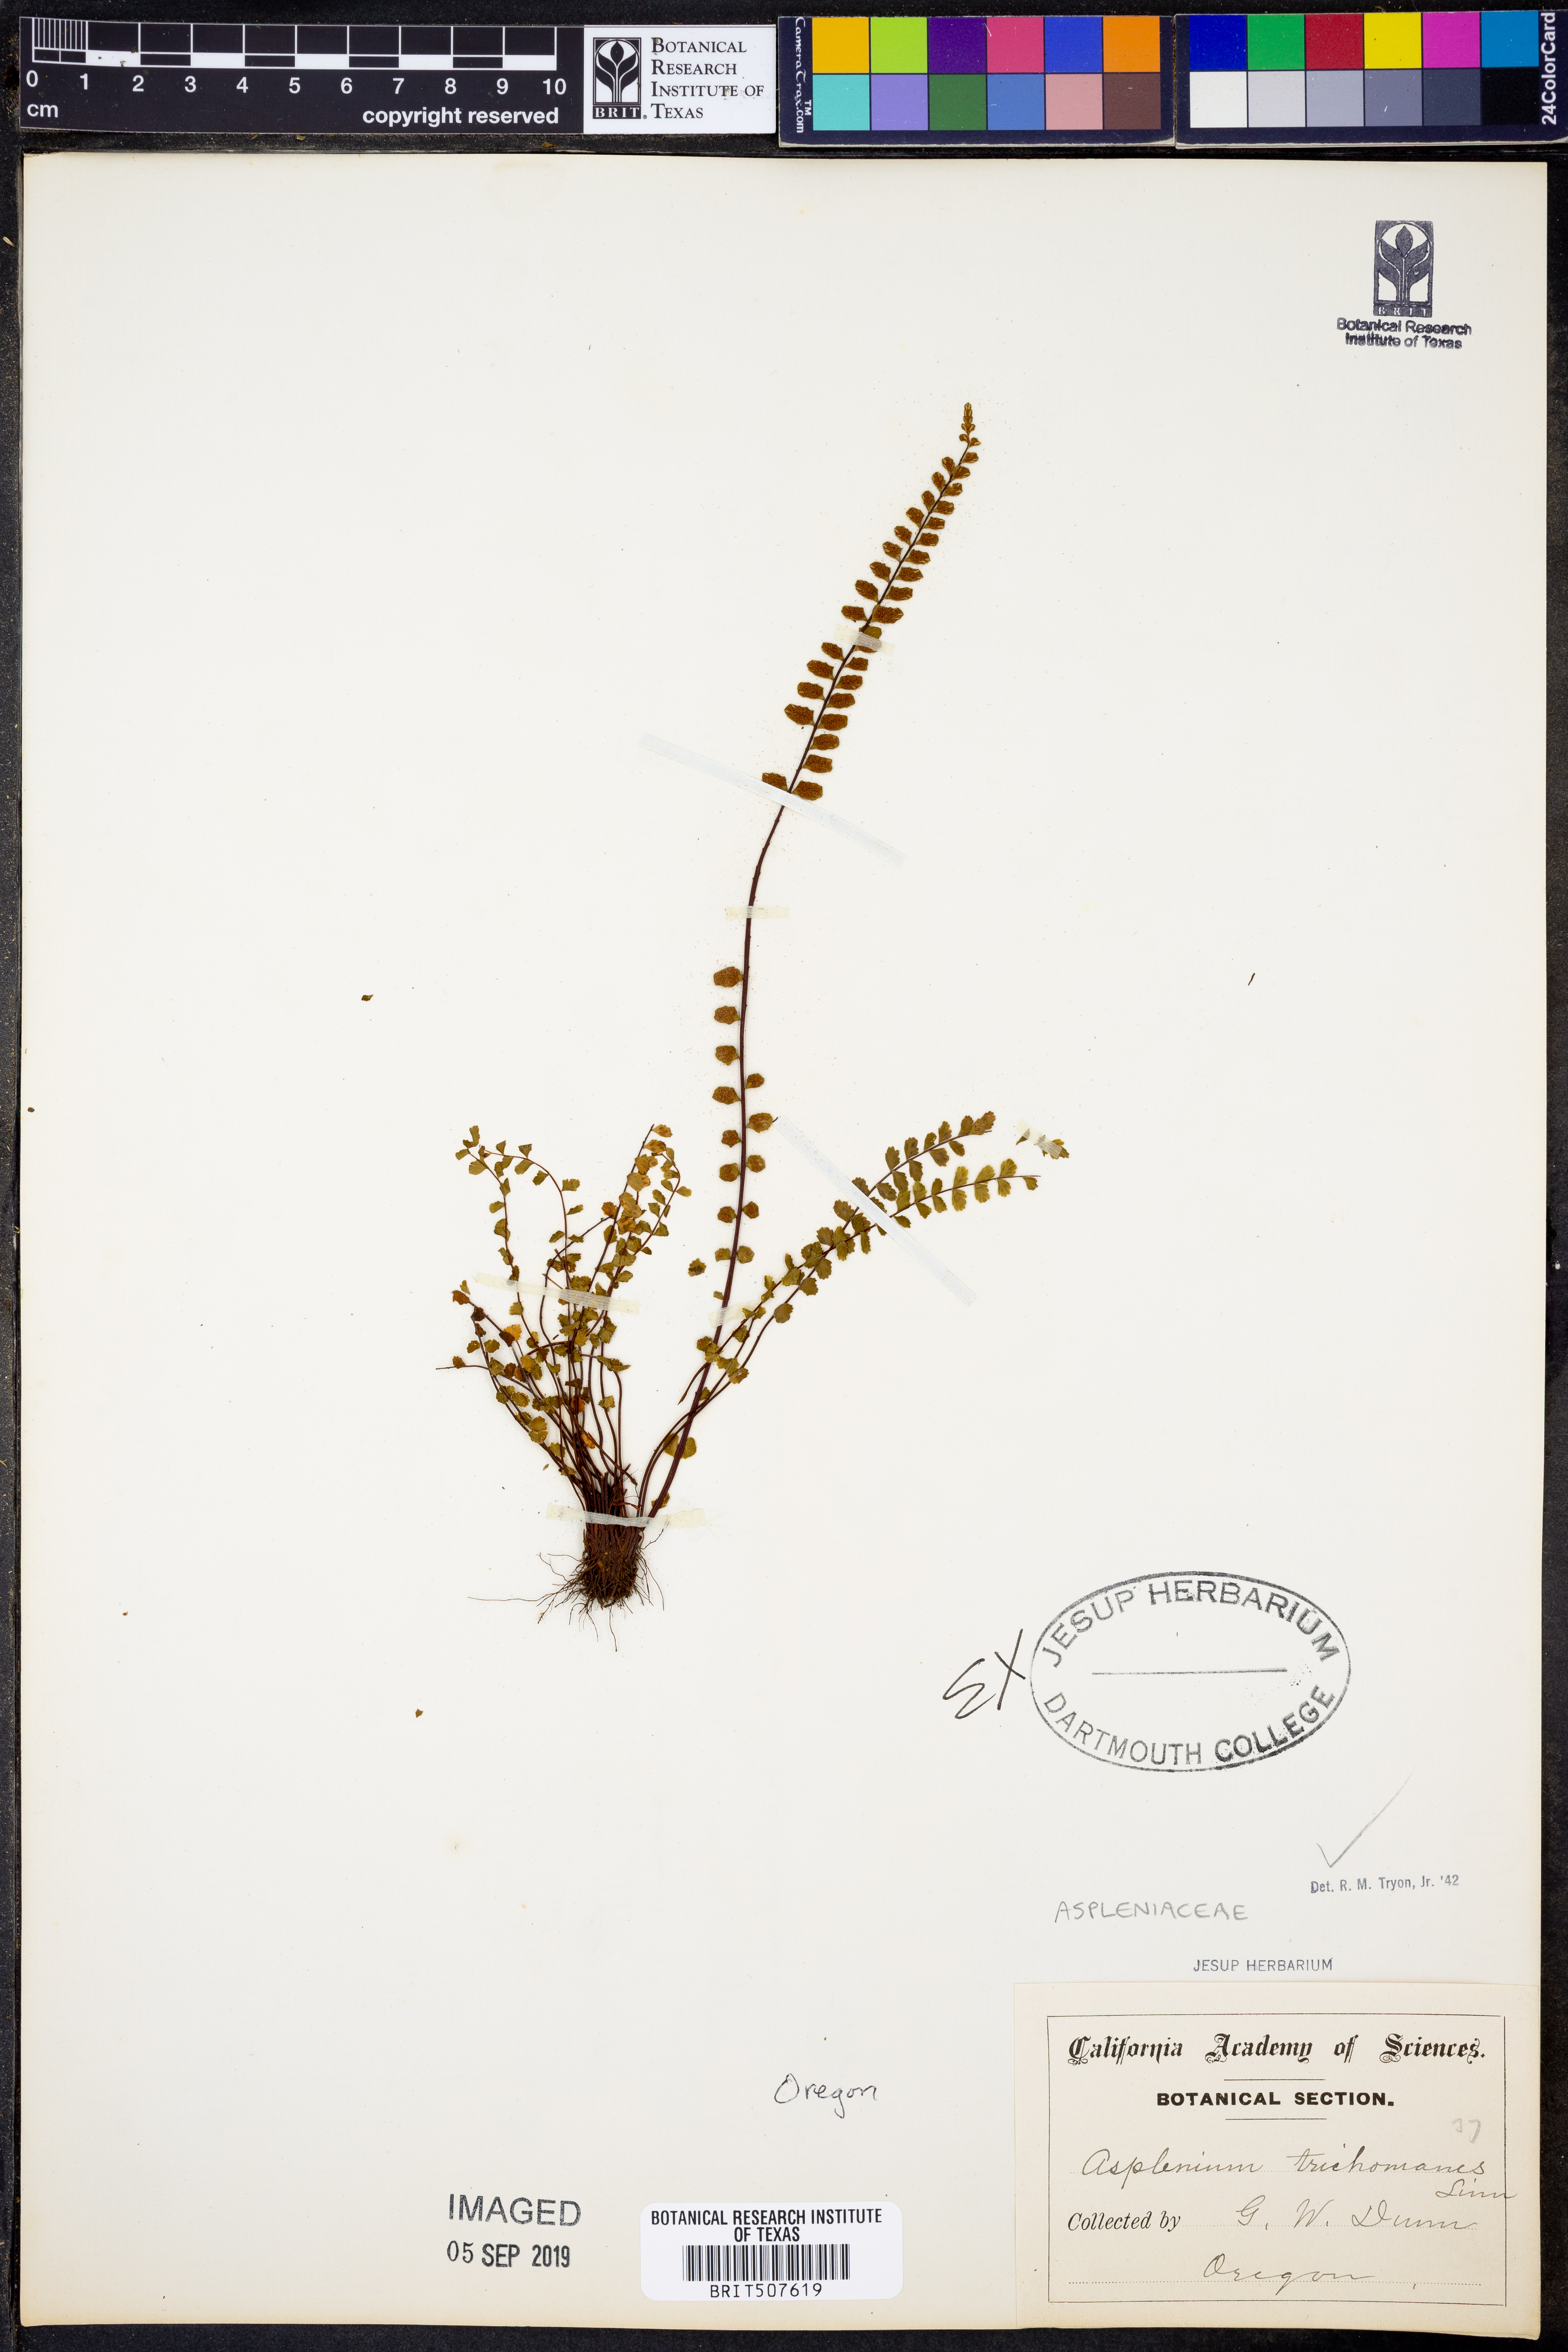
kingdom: Plantae
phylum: Tracheophyta
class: Polypodiopsida
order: Polypodiales
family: Aspleniaceae
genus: Asplenium
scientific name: Asplenium trichomanes
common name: Maidenhair spleenwort
